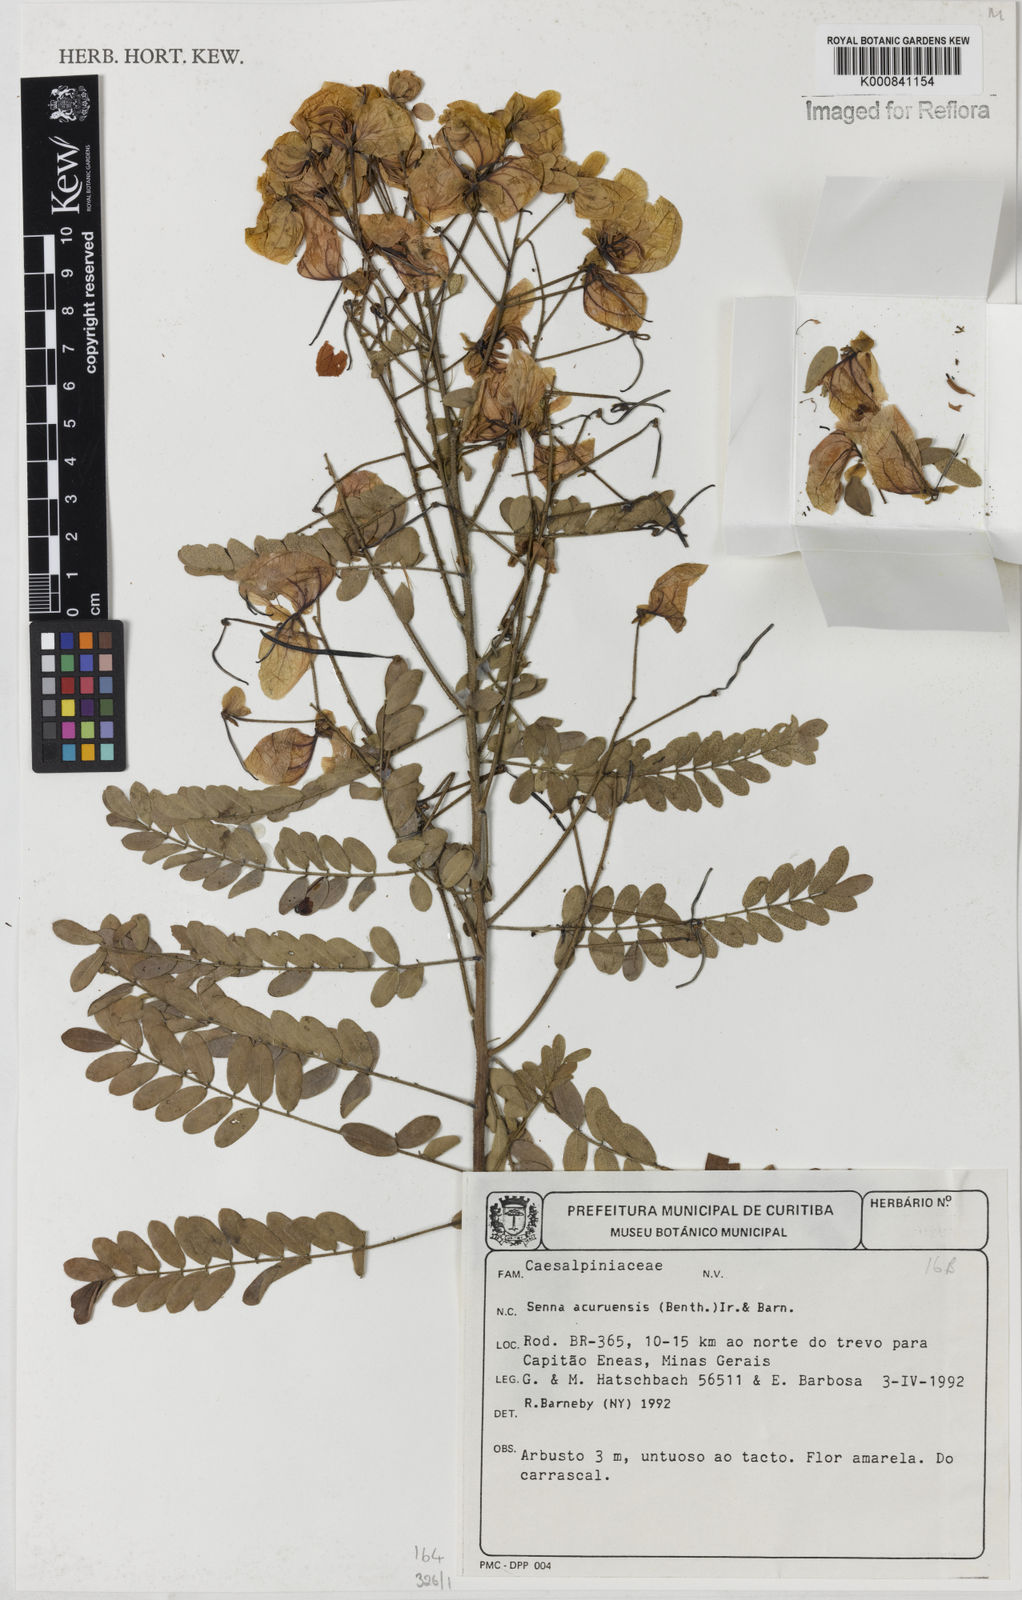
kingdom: Plantae
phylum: Tracheophyta
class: Magnoliopsida
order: Fabales
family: Fabaceae
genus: Senna
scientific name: Senna acuruensis
